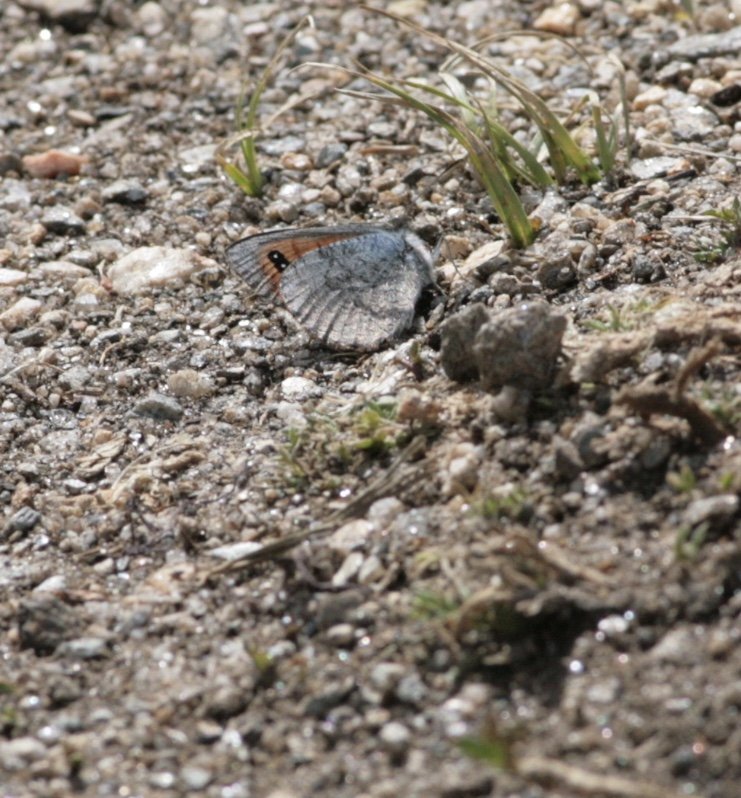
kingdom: Animalia
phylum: Arthropoda
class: Insecta
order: Lepidoptera
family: Nymphalidae
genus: Erebia
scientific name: Erebia tyndarus
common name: Colorado Alpine
